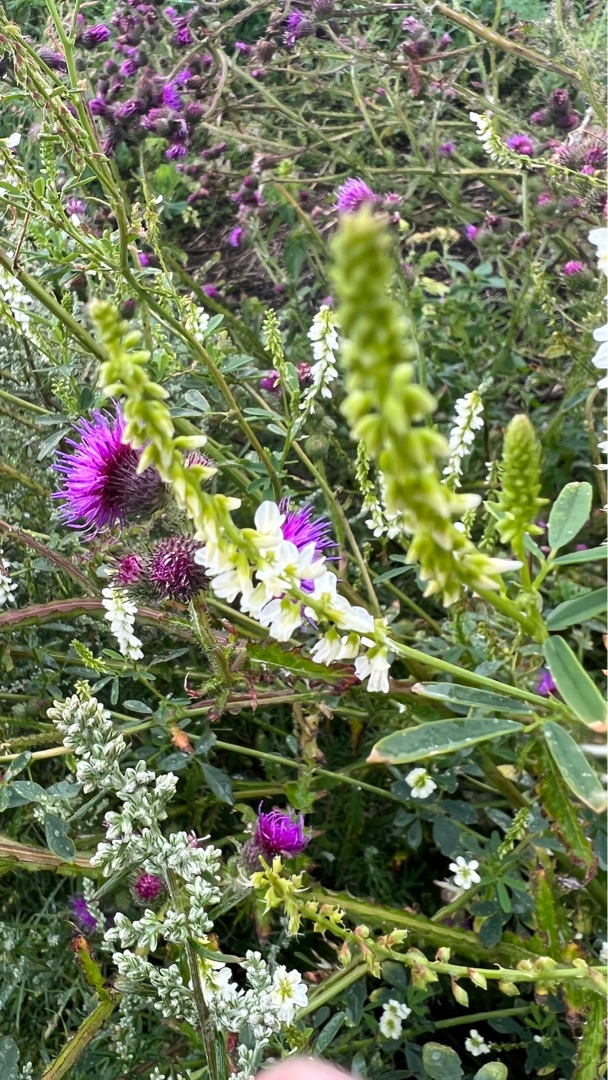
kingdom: Plantae
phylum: Tracheophyta
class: Magnoliopsida
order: Fabales
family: Fabaceae
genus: Melilotus
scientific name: Melilotus albus
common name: Hvid stenkløver
